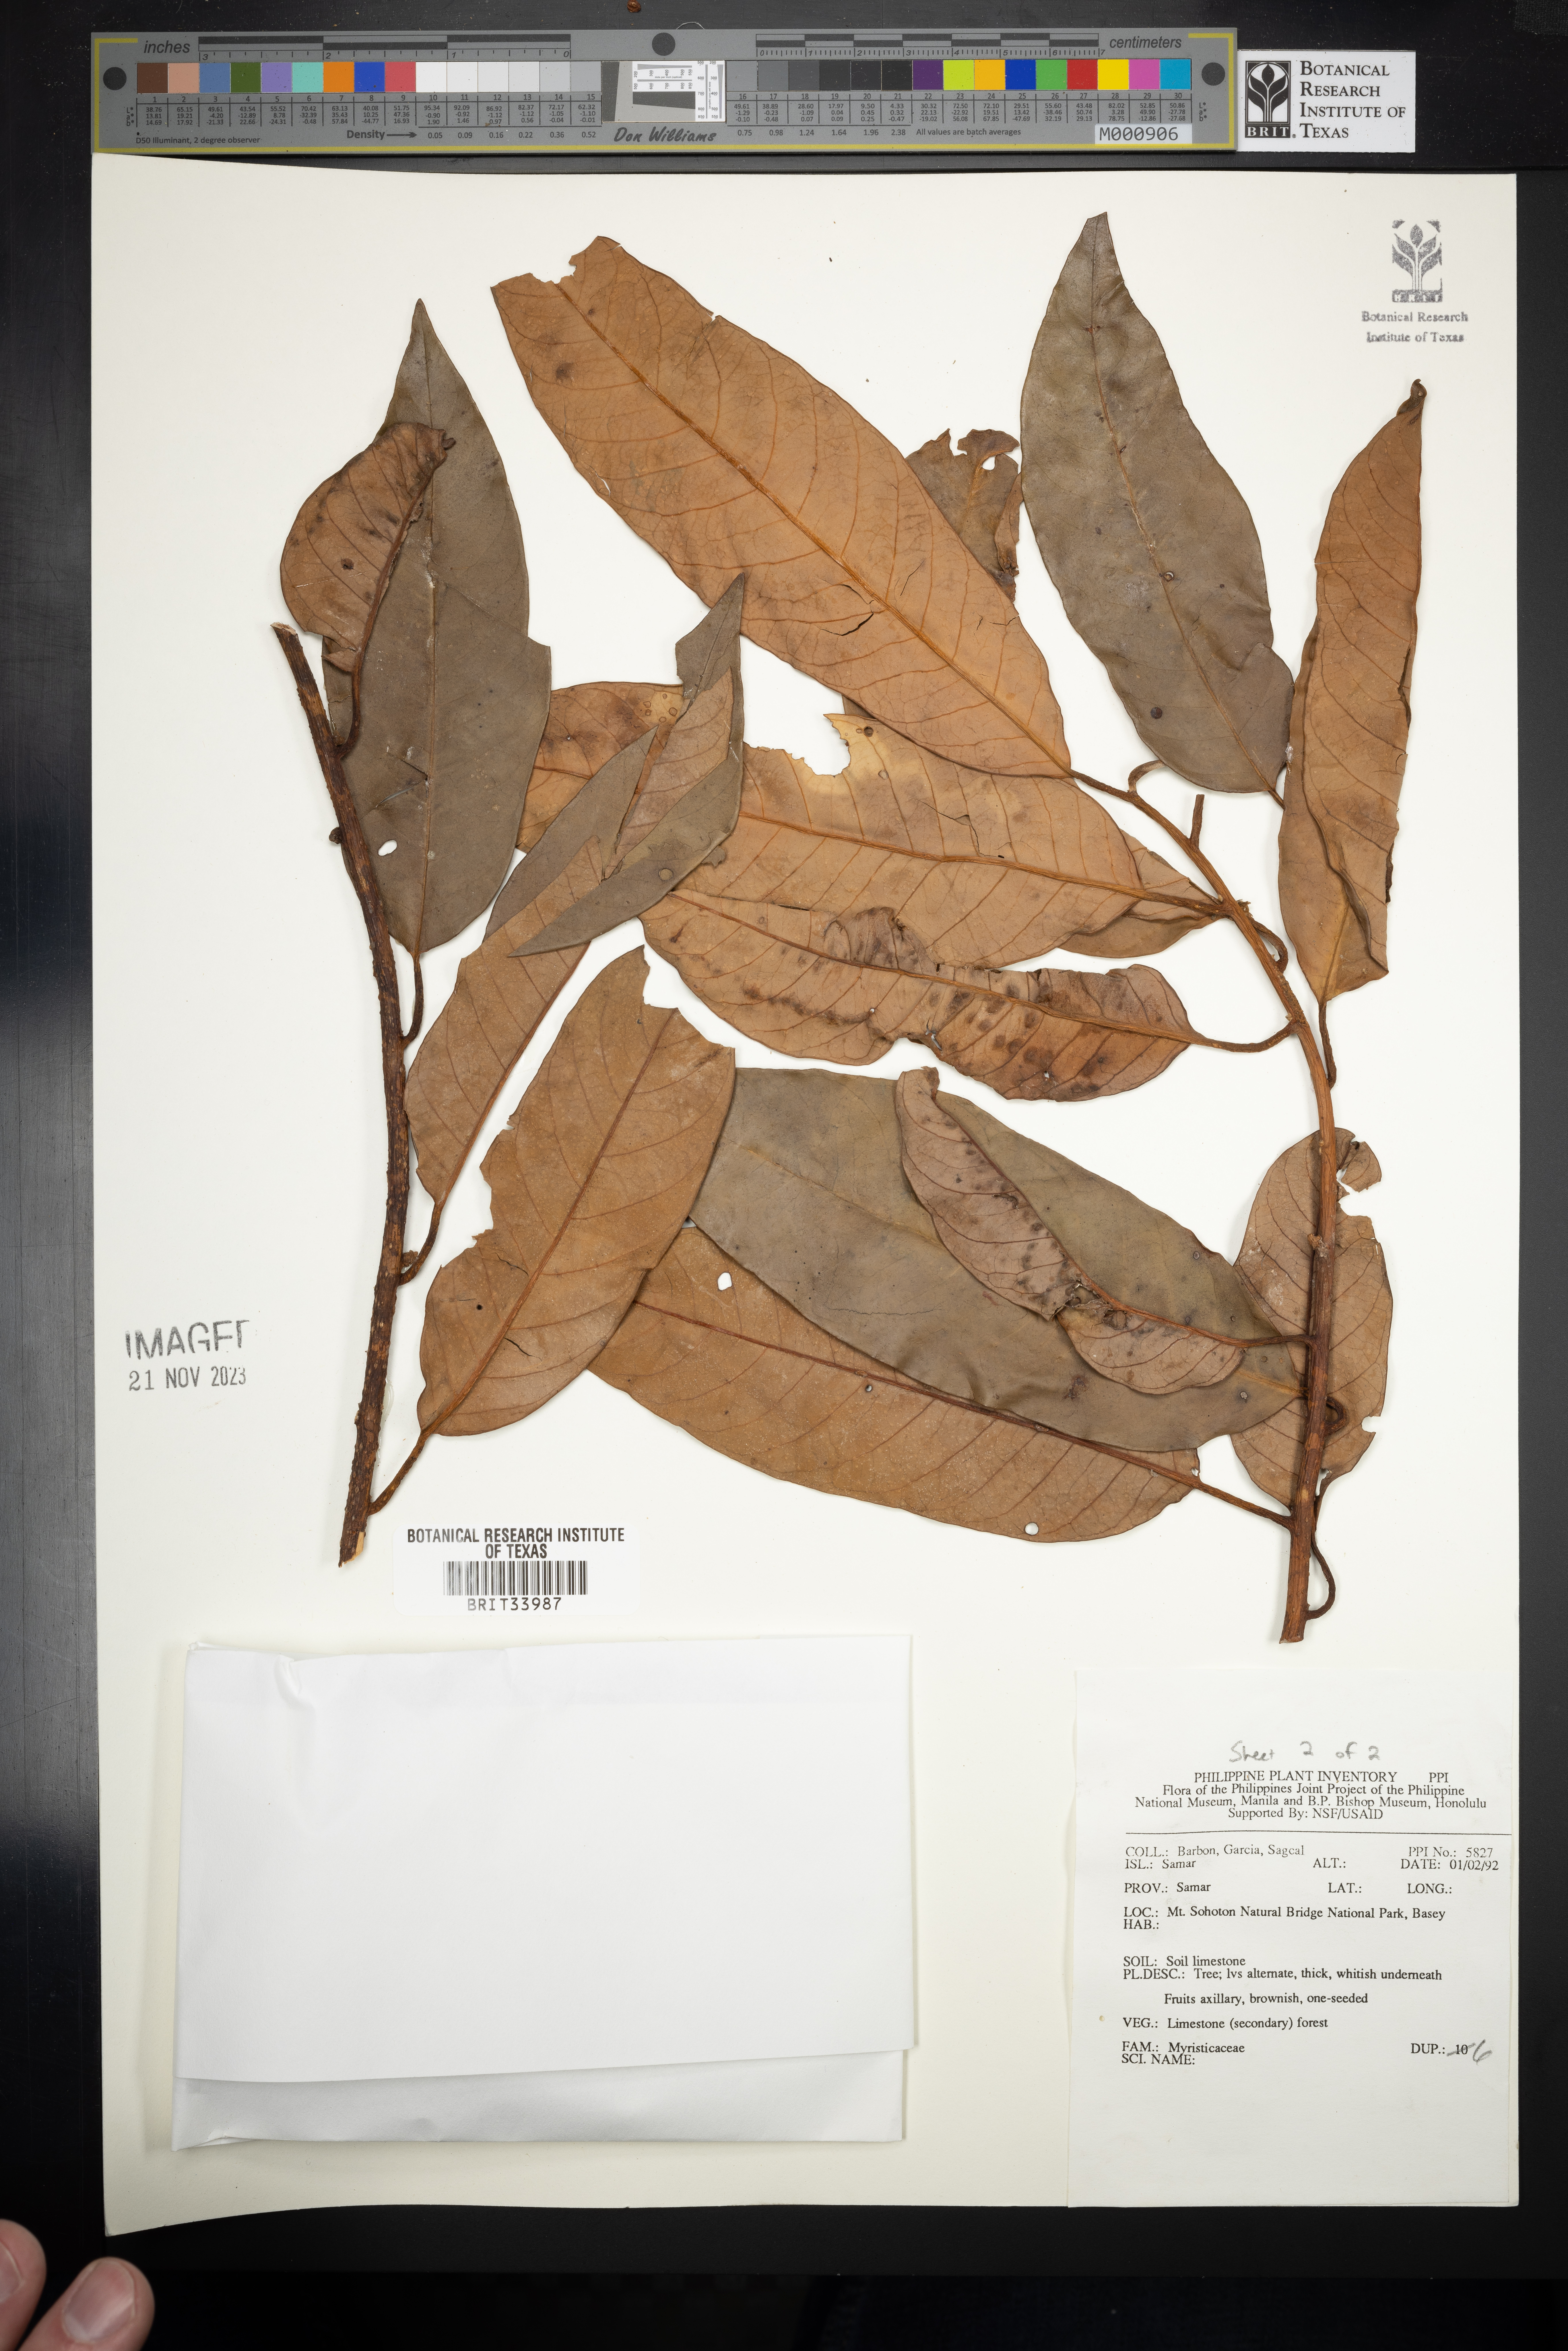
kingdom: Plantae
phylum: Tracheophyta
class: Magnoliopsida
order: Magnoliales
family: Myristicaceae
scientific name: Myristicaceae
